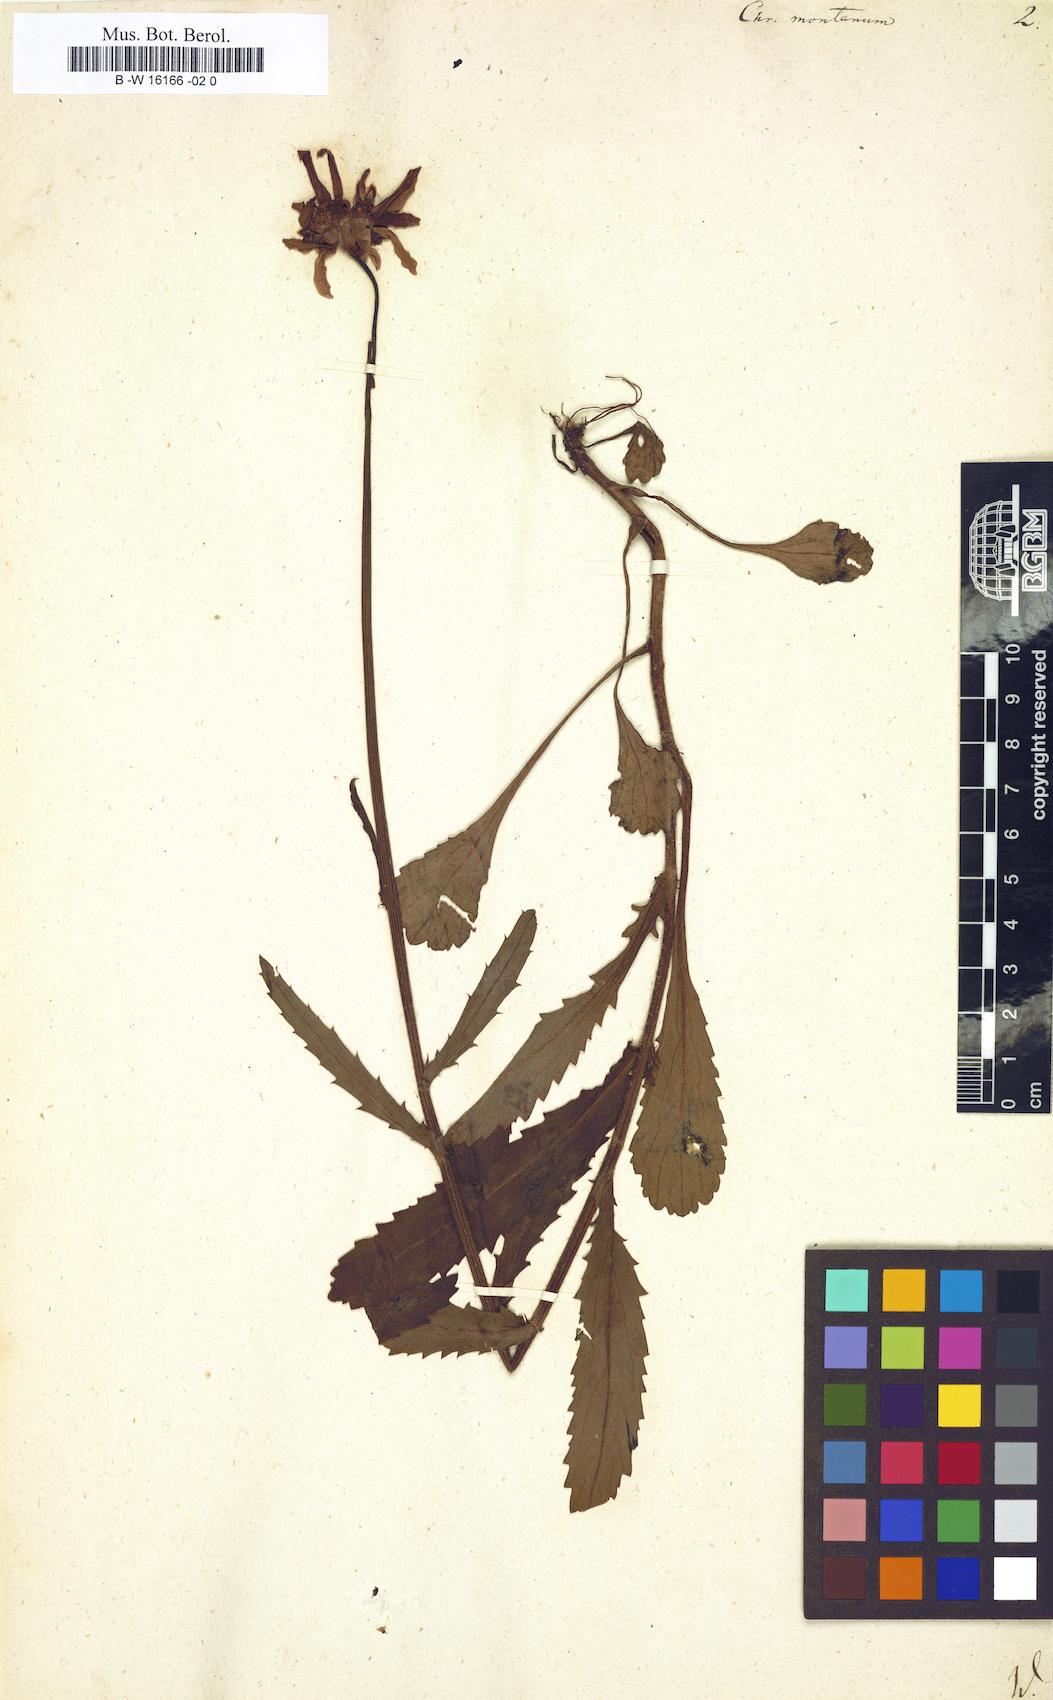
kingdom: Plantae
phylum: Tracheophyta
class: Magnoliopsida
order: Asterales
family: Asteraceae
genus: Leucanthemum
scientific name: Leucanthemum
